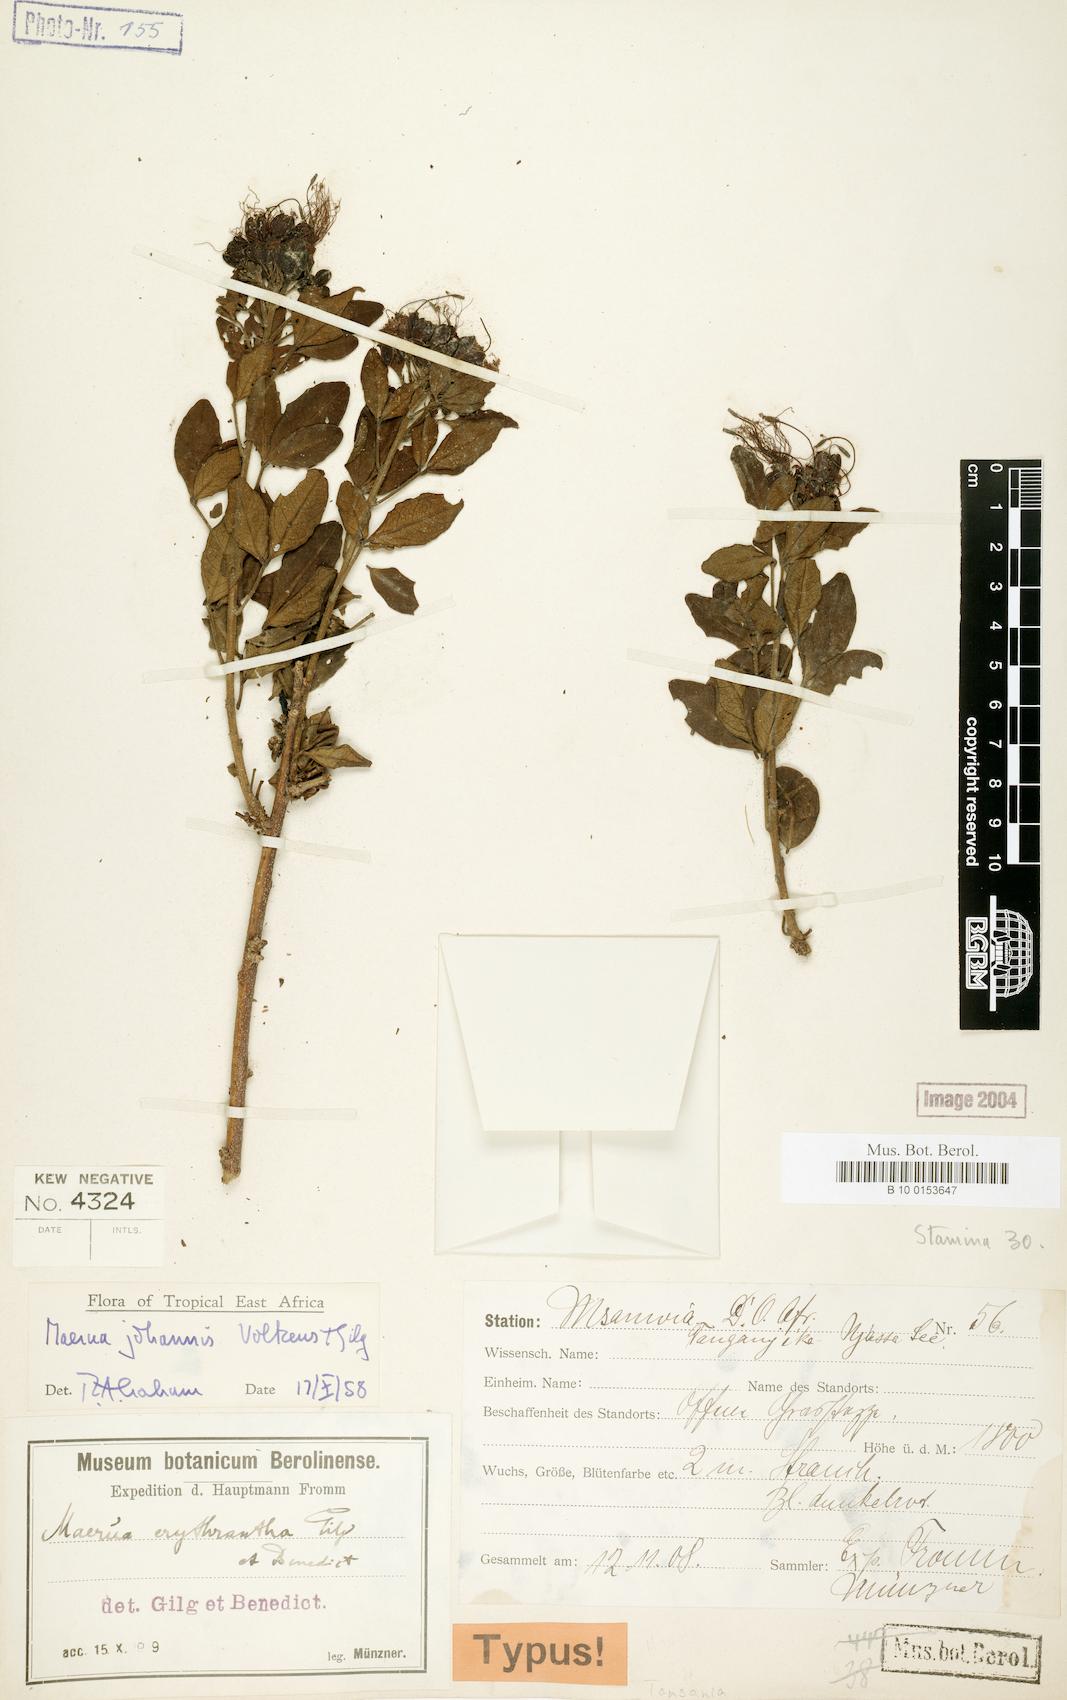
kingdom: Plantae
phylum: Tracheophyta
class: Magnoliopsida
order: Brassicales
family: Capparaceae
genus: Maerua
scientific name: Maerua triphylla
